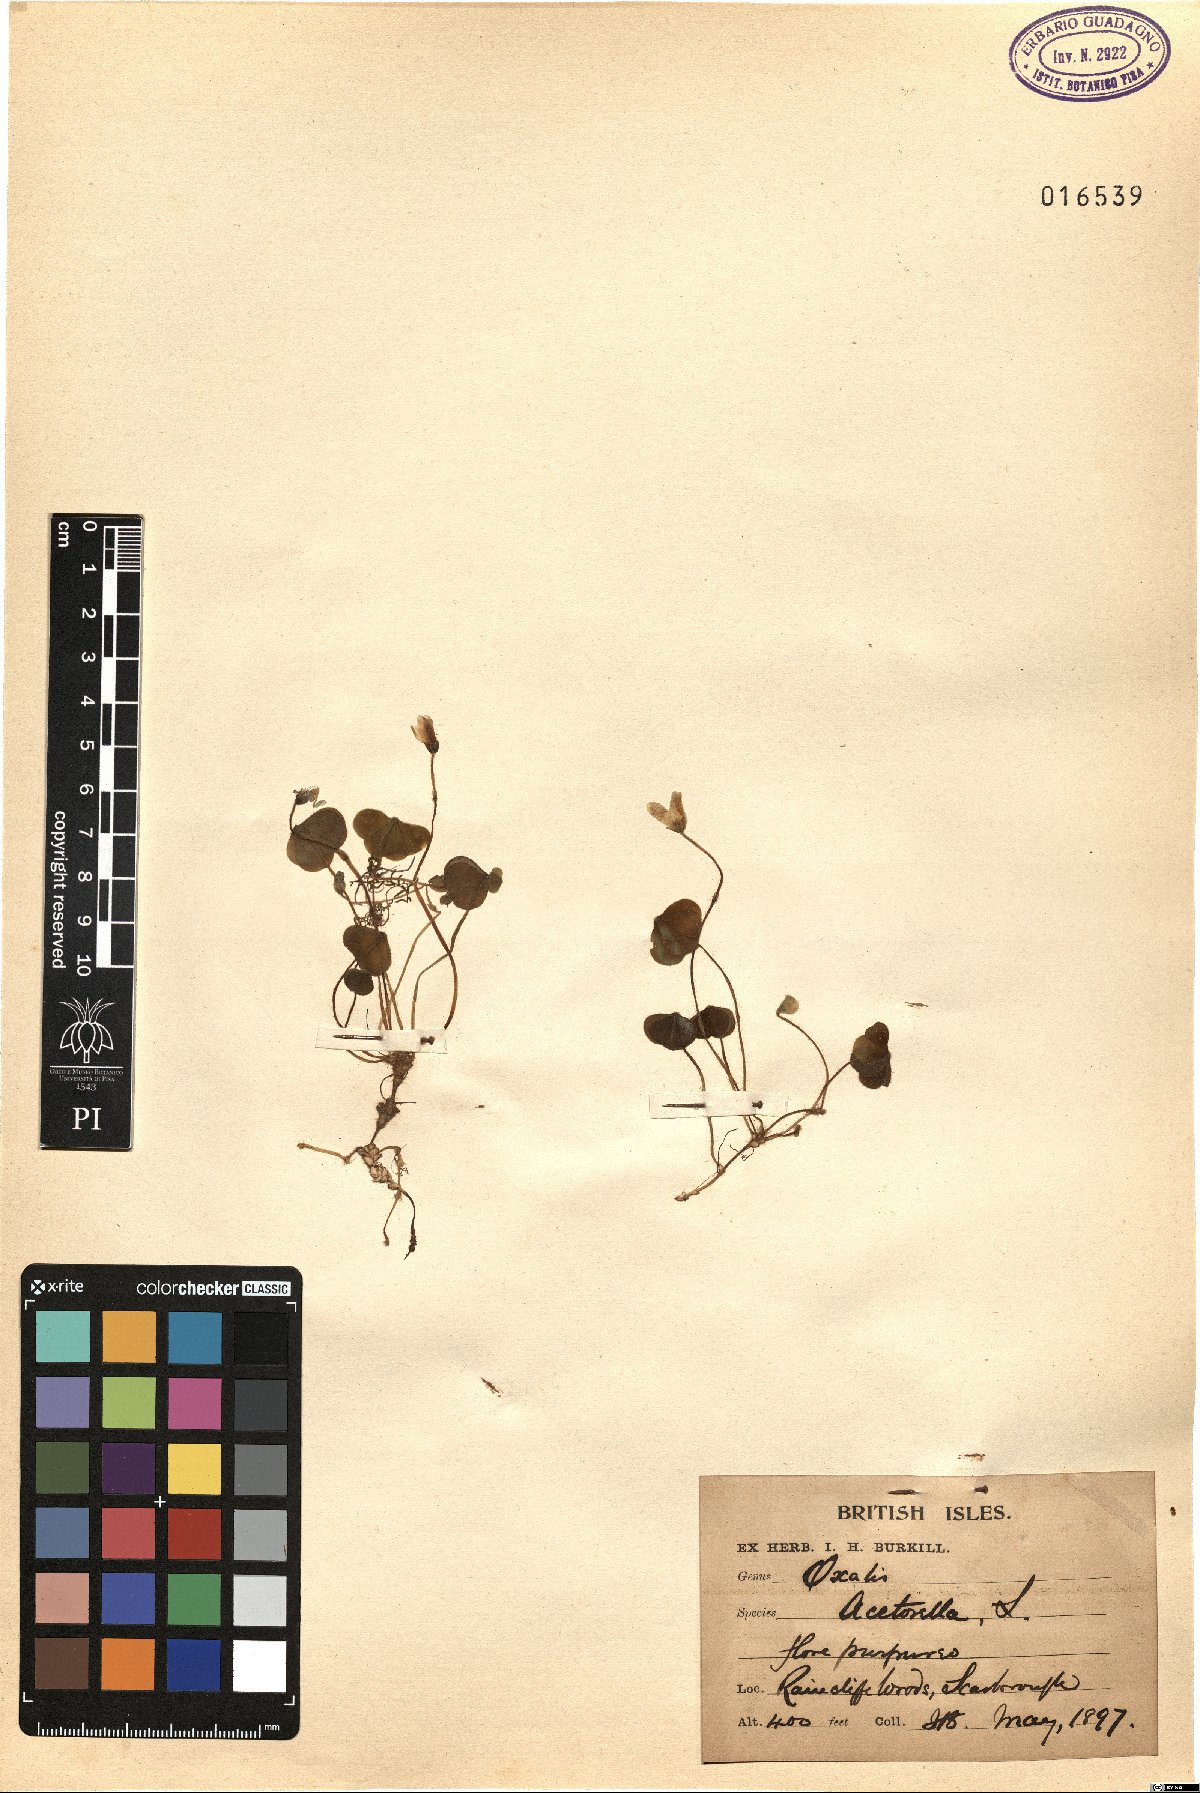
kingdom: Plantae
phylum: Tracheophyta
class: Magnoliopsida
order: Oxalidales
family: Oxalidaceae
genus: Oxalis
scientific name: Oxalis acetosella
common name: Wood-sorrel
